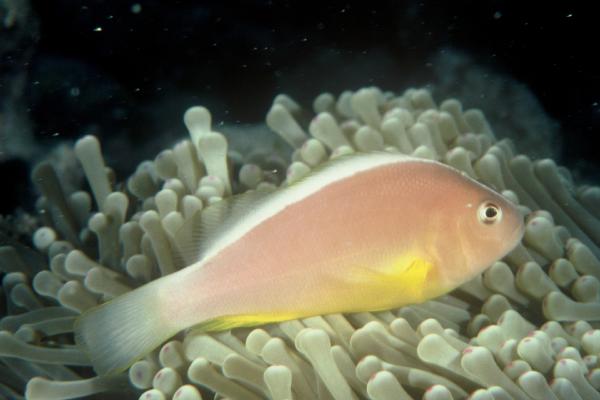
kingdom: Animalia
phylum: Chordata
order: Perciformes
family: Pomacentridae
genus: Amphiprion
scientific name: Amphiprion akallopisos
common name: Skunk clownfish
